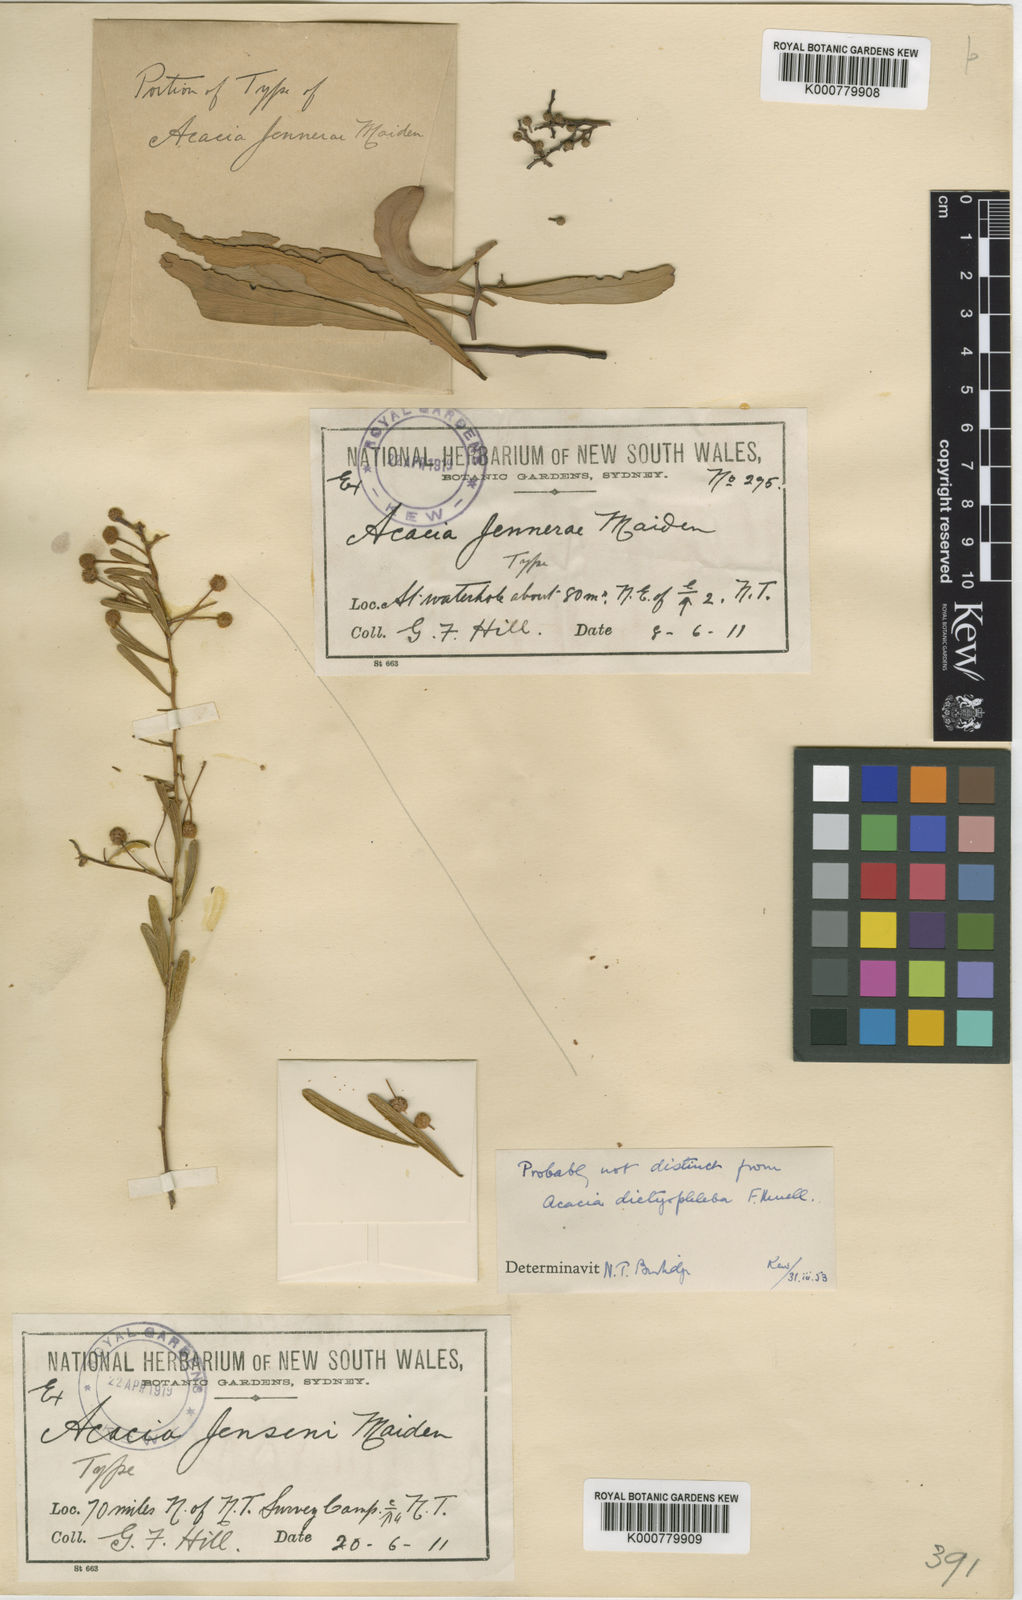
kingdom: Plantae
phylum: Tracheophyta
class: Magnoliopsida
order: Fabales
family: Fabaceae
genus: Acacia
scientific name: Acacia jensenii
